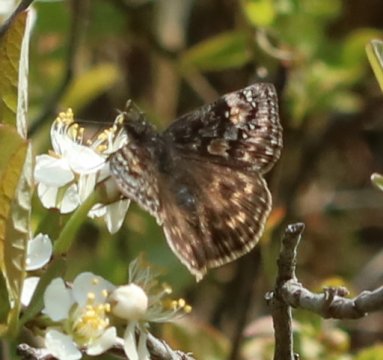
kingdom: Animalia
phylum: Arthropoda
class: Insecta
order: Lepidoptera
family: Hesperiidae
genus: Gesta
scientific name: Gesta
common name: Juvenal's Duskywing
